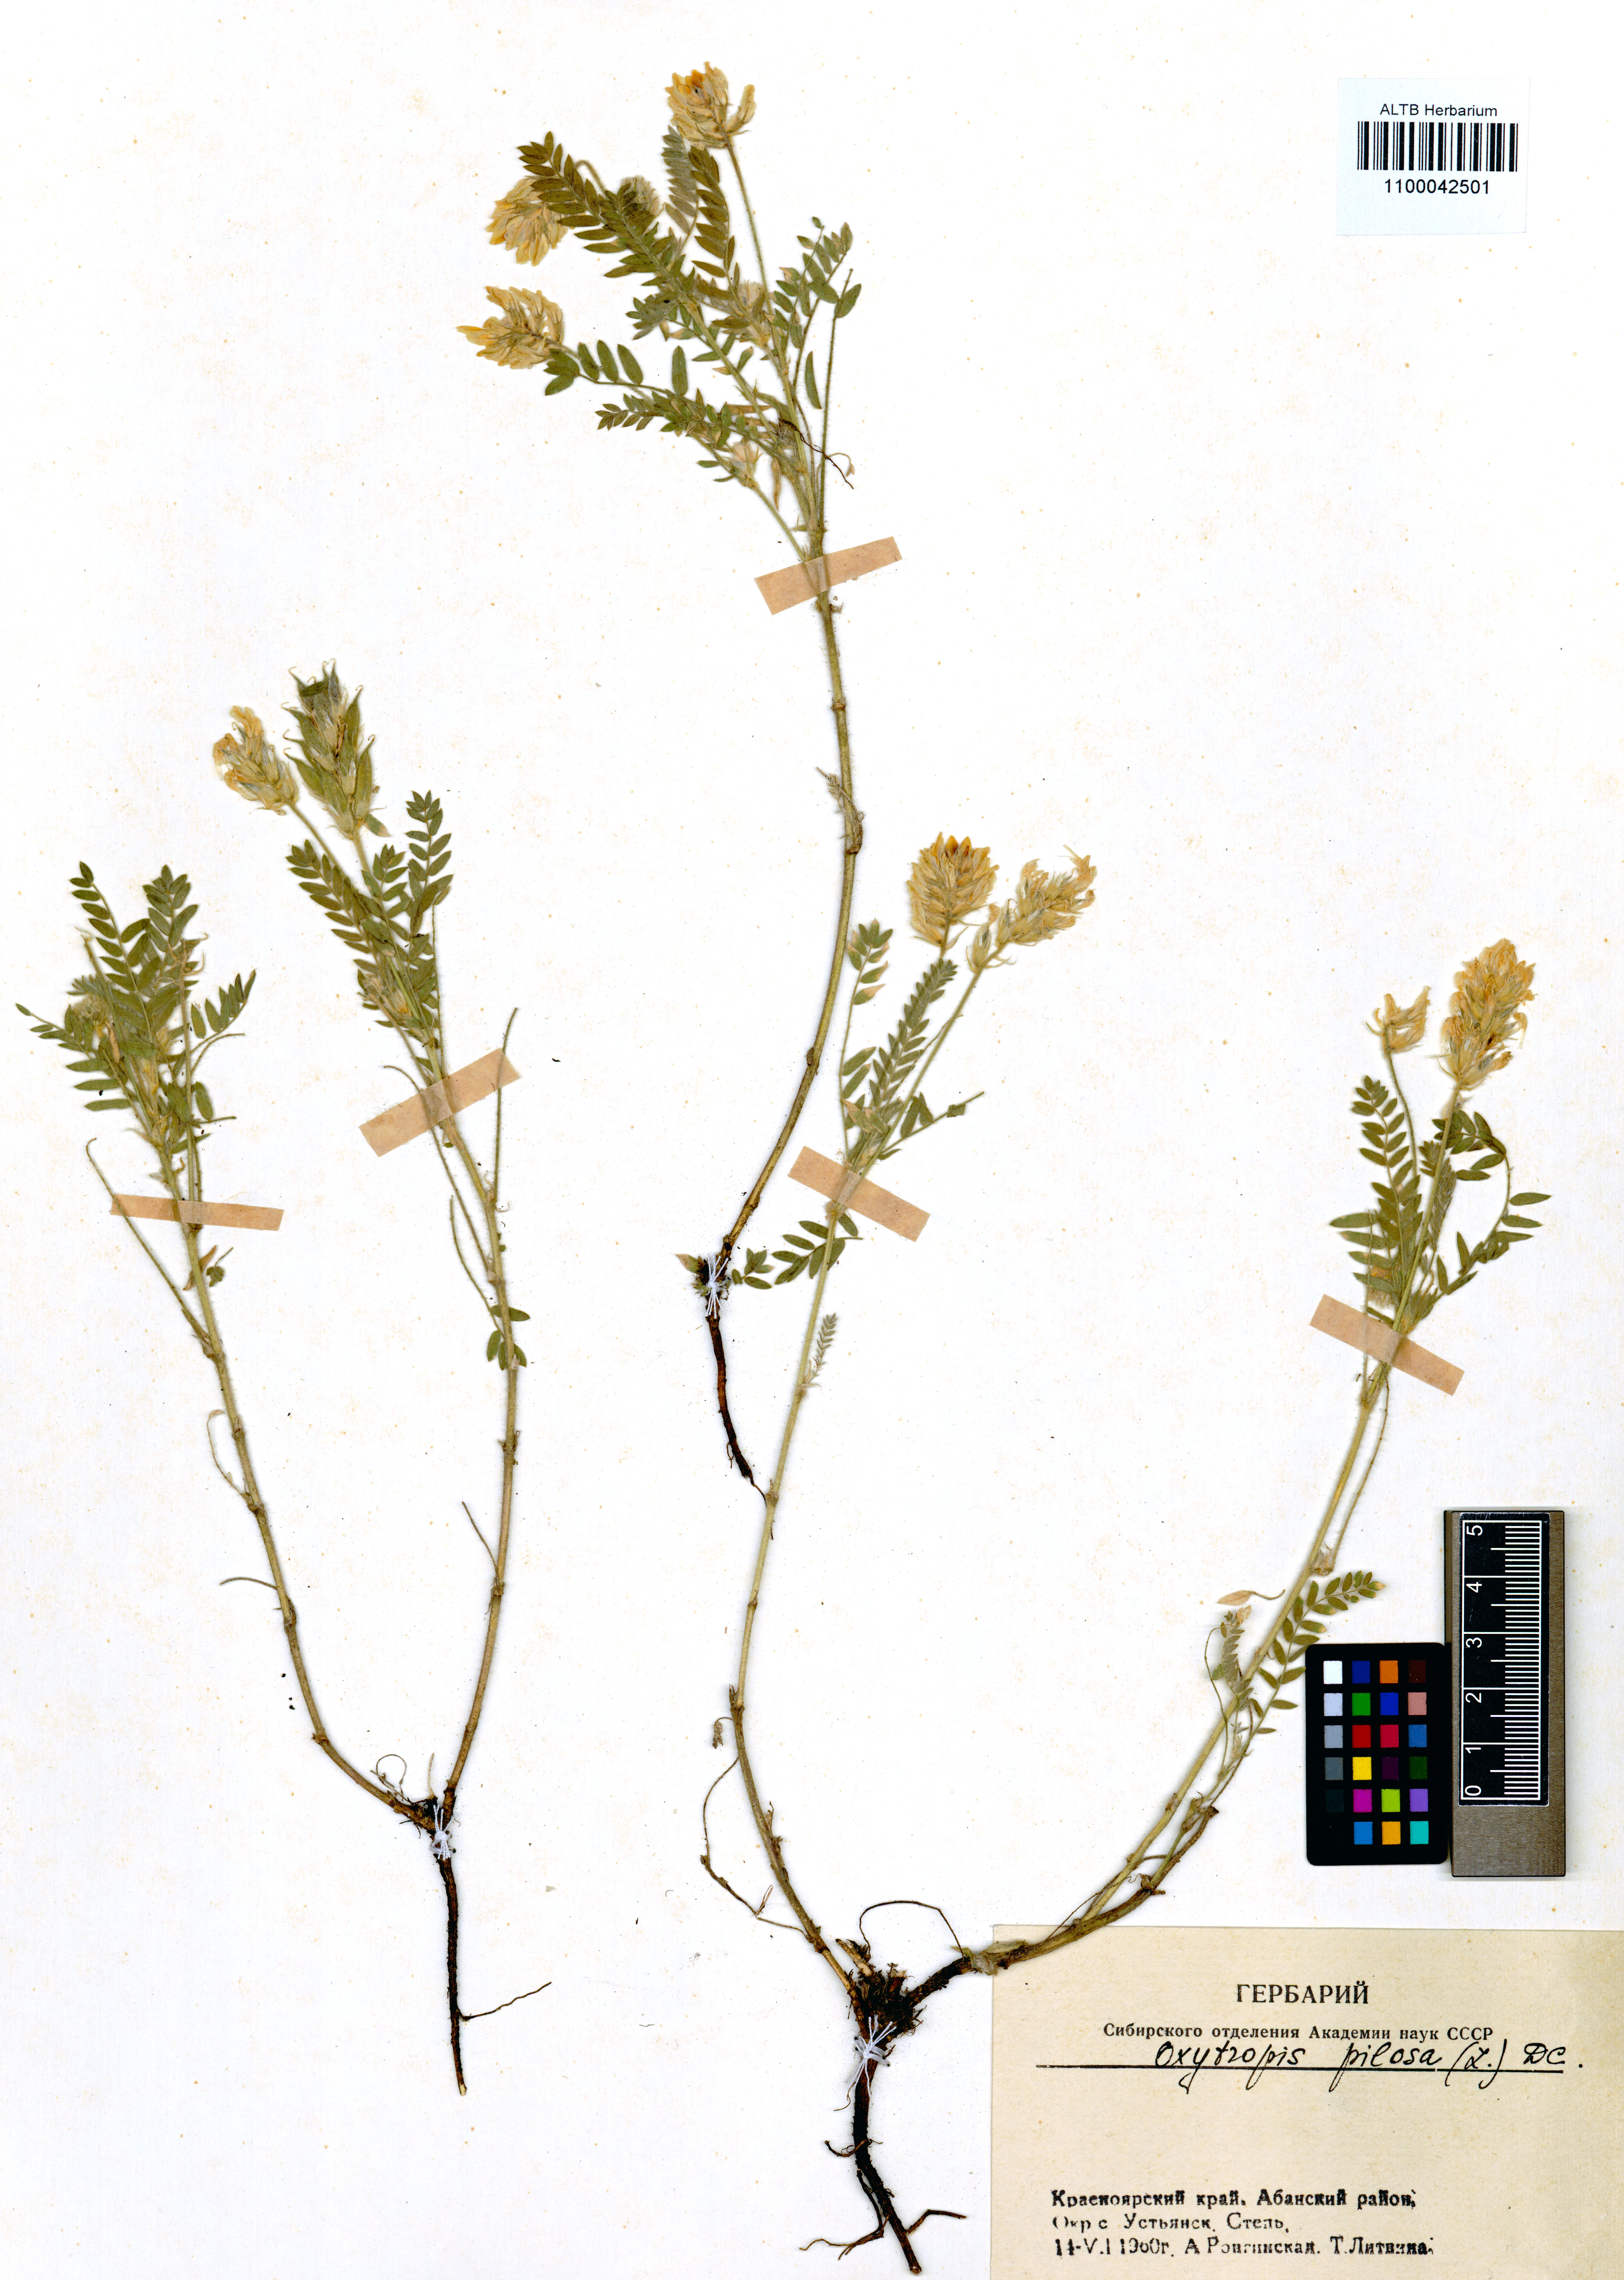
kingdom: Plantae
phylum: Tracheophyta
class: Magnoliopsida
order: Fabales
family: Fabaceae
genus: Oxytropis
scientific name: Oxytropis pilosa
